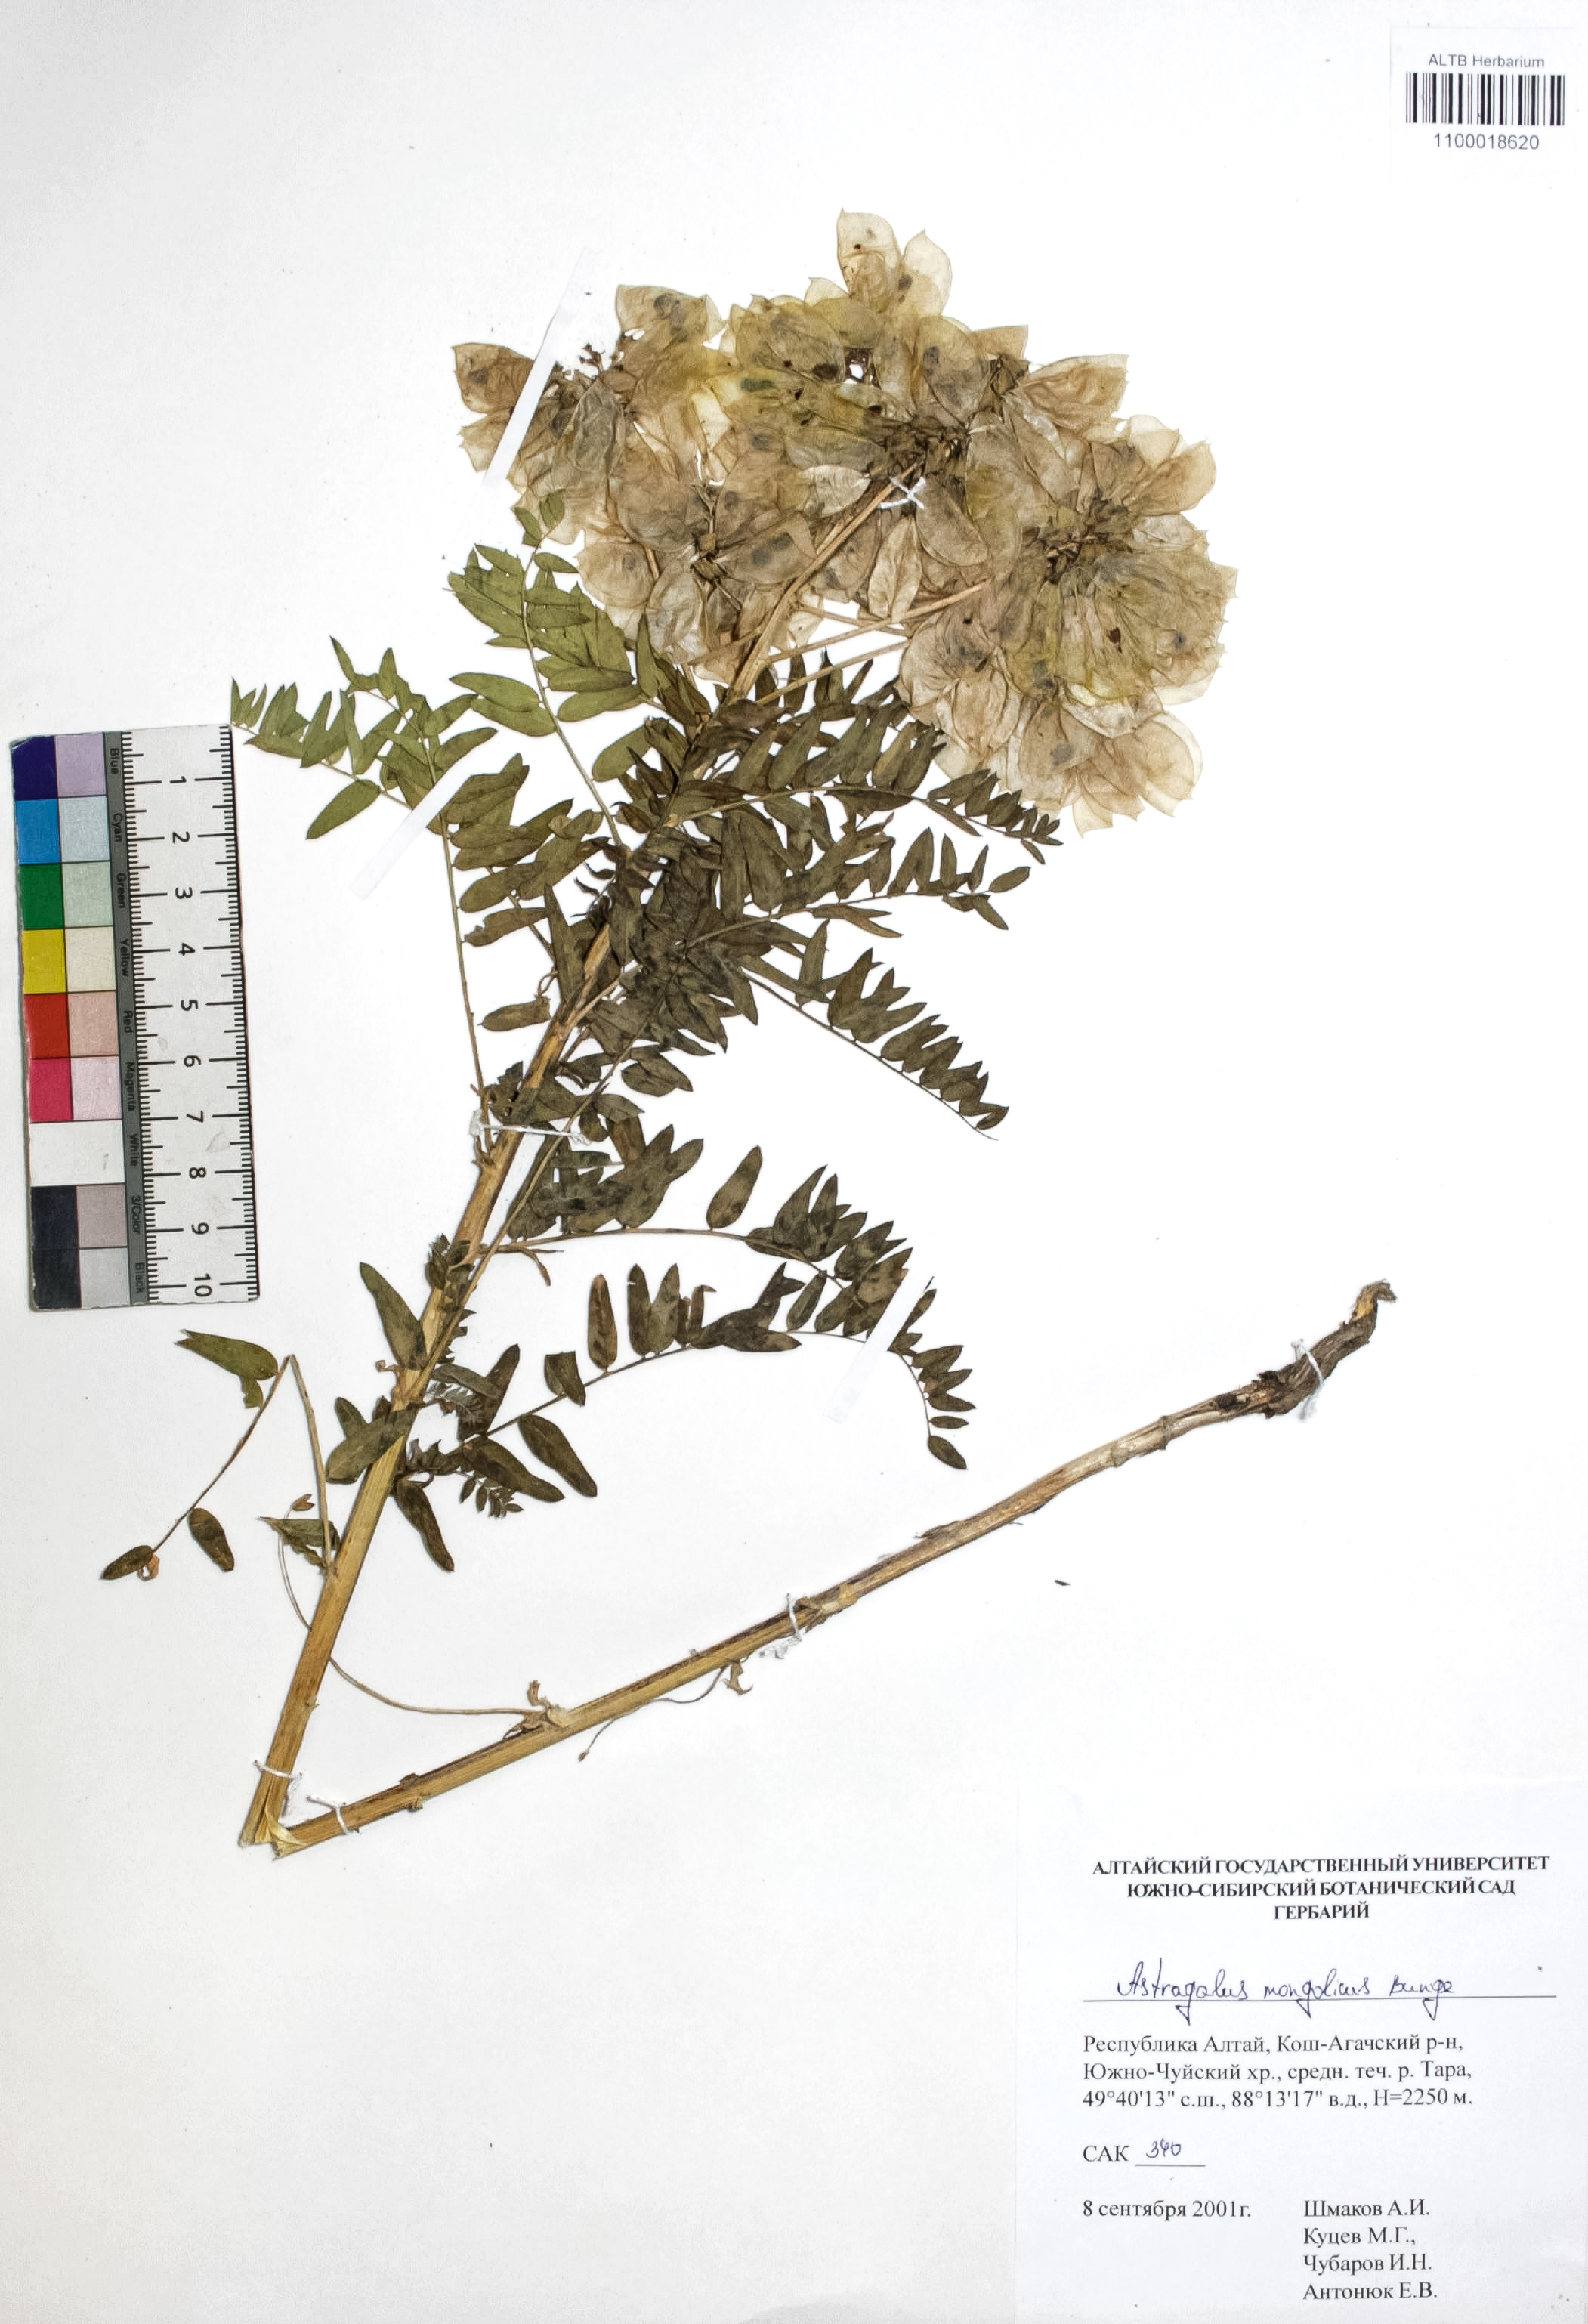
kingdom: Plantae
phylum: Tracheophyta
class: Magnoliopsida
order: Fabales
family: Fabaceae
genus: Astragalus
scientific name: Astragalus mongolicus
